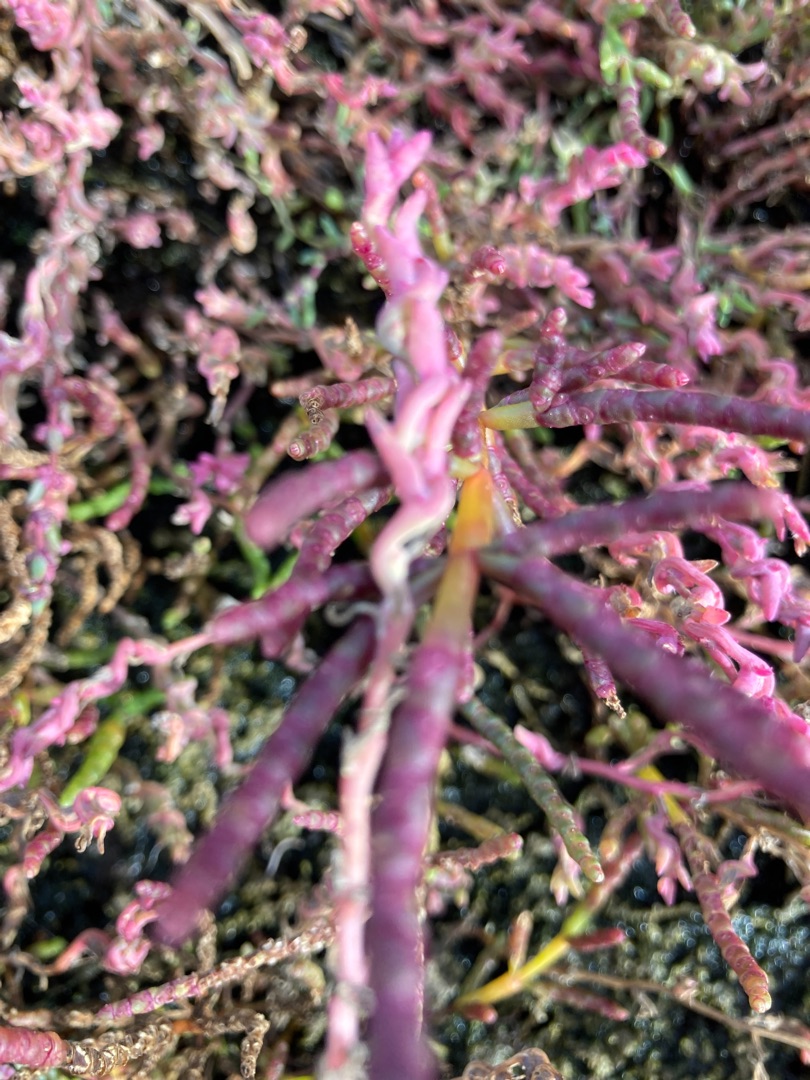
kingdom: Plantae
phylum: Tracheophyta
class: Magnoliopsida
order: Caryophyllales
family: Amaranthaceae
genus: Spirobassia
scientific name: Spirobassia hirsuta
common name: Tangurt
